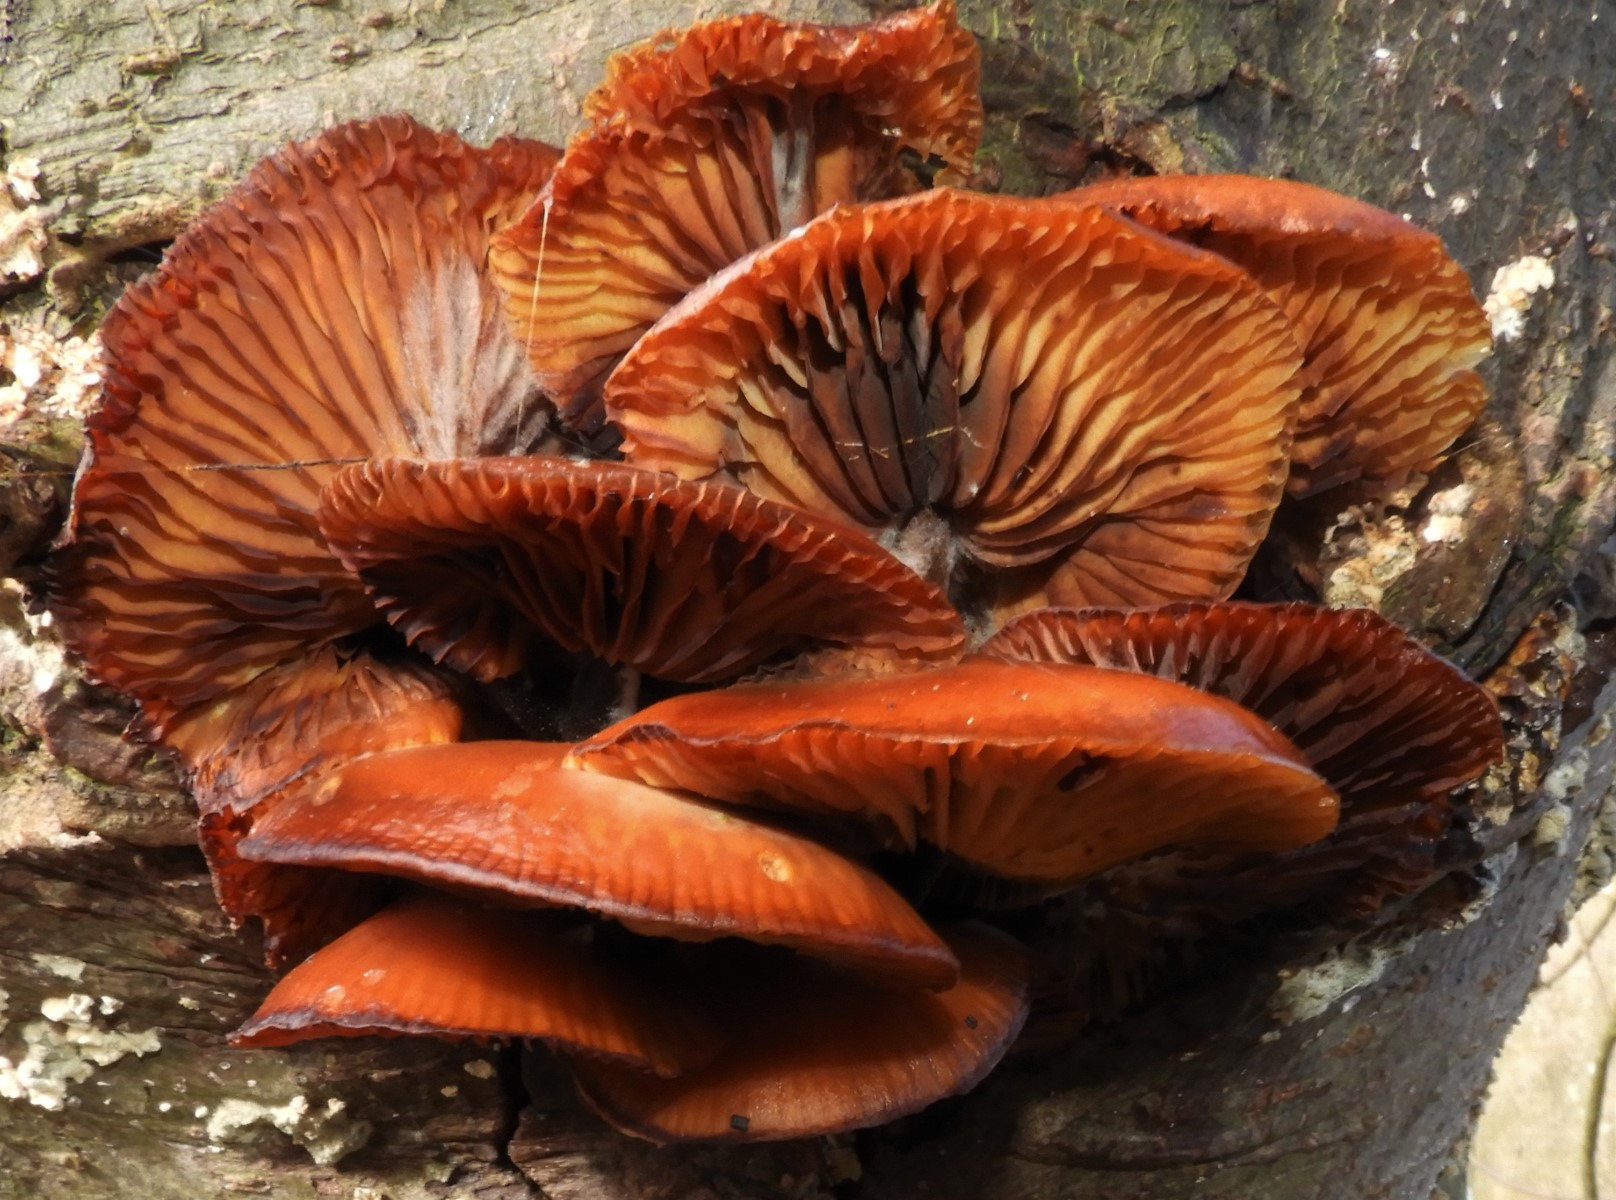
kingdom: Fungi
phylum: Basidiomycota
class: Agaricomycetes
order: Agaricales
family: Physalacriaceae
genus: Flammulina
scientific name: Flammulina velutipes
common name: gul fløjlsfod
